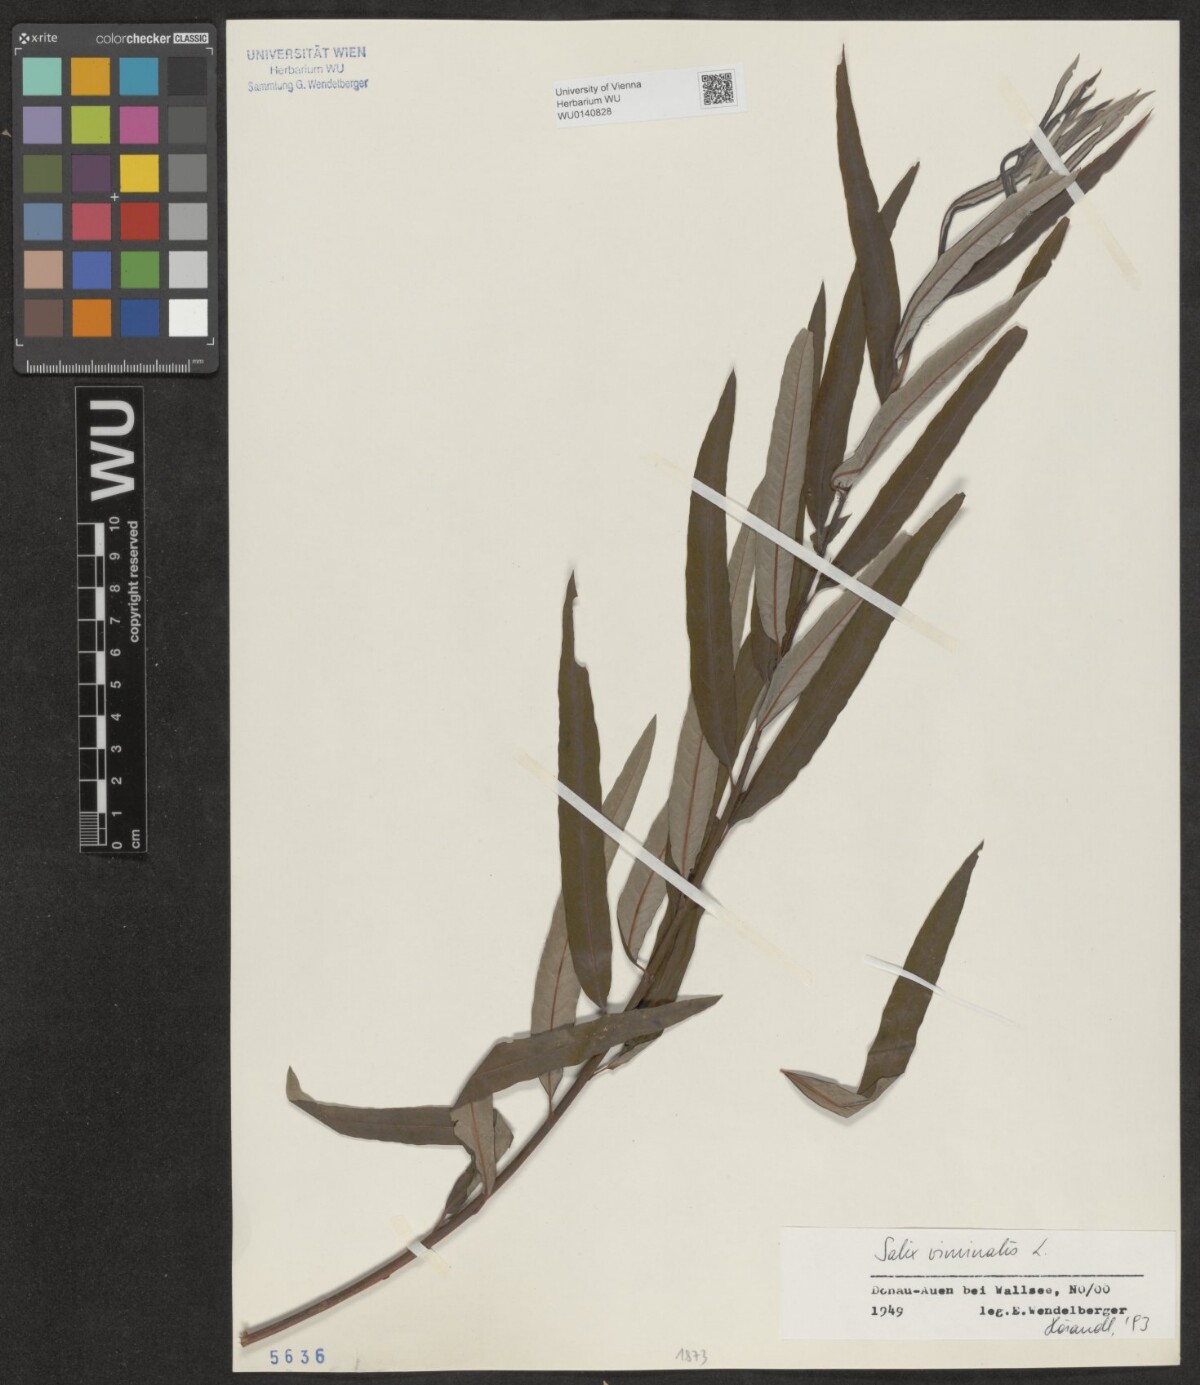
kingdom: Plantae
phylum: Tracheophyta
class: Magnoliopsida
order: Malpighiales
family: Salicaceae
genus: Salix
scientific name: Salix viminalis
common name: Osier
